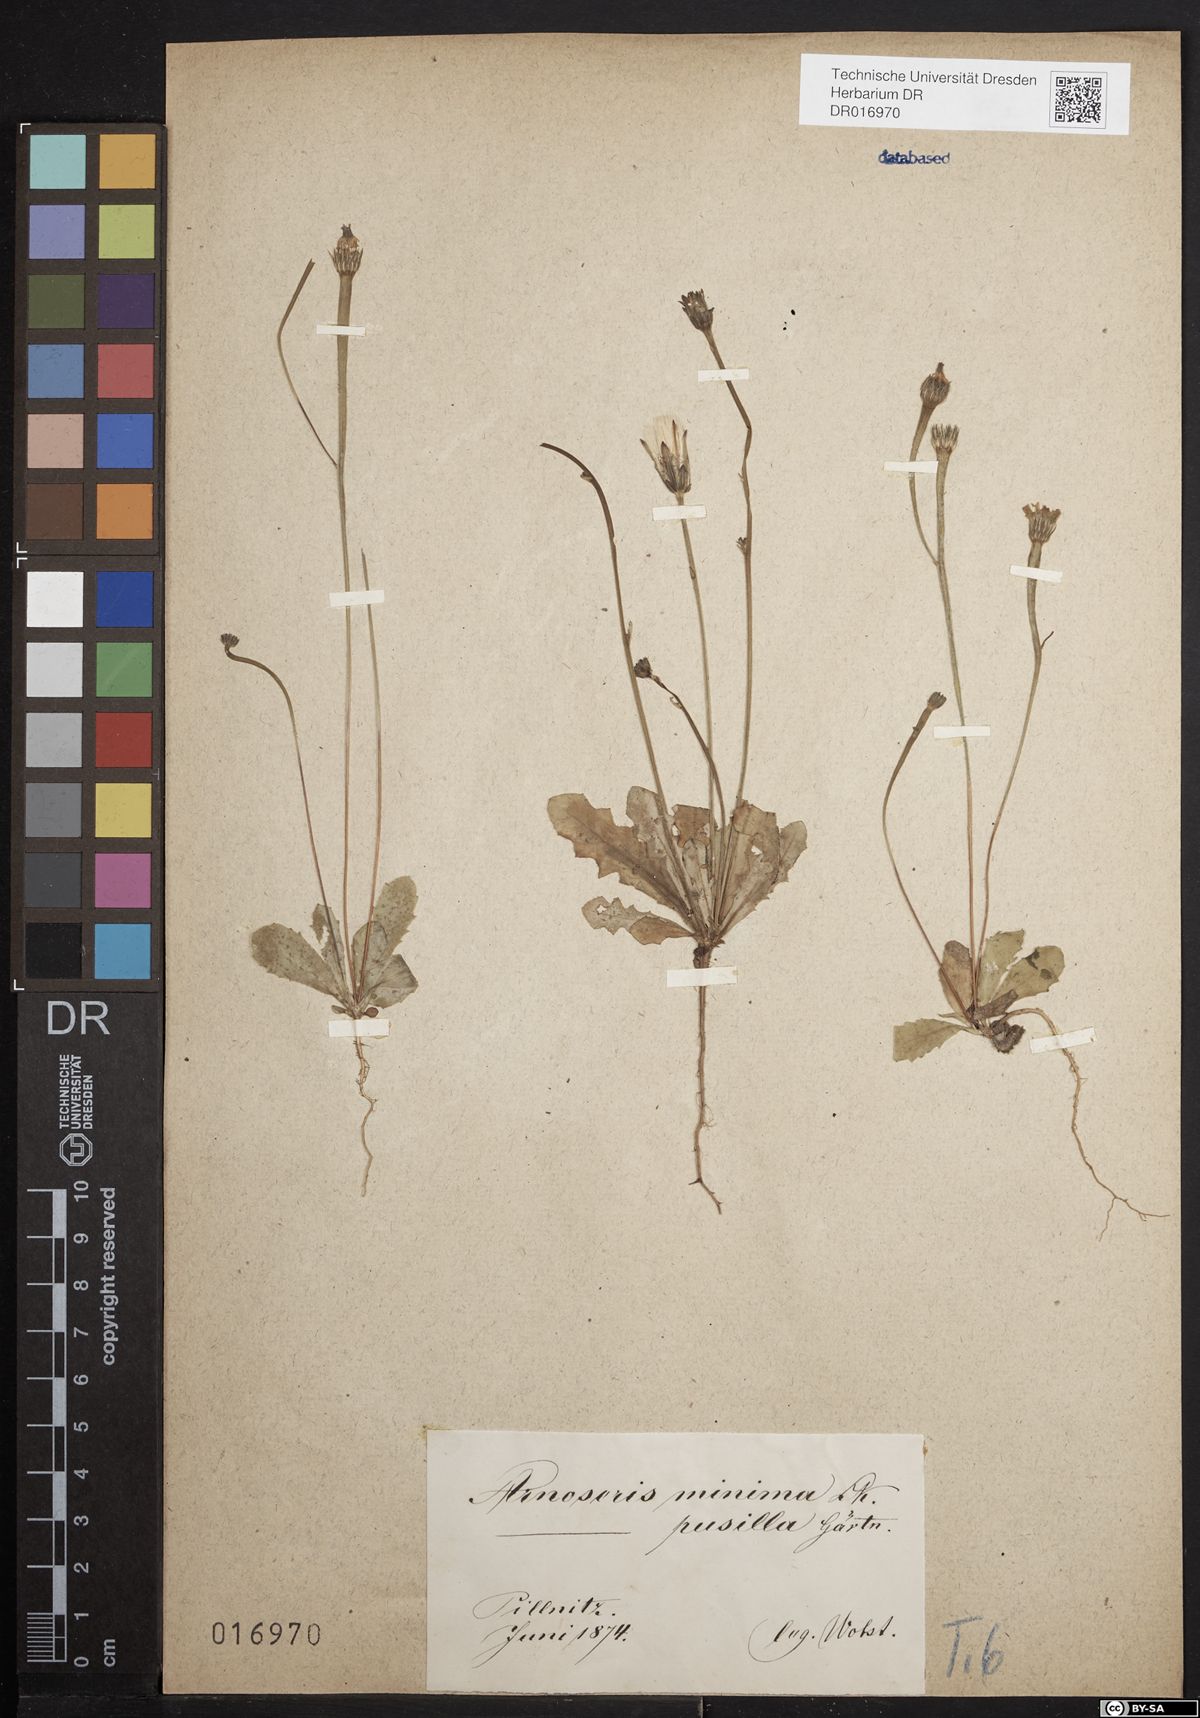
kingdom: Plantae
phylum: Tracheophyta
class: Magnoliopsida
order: Asterales
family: Asteraceae
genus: Arnoseris
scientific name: Arnoseris minima
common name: Lamb's succory
